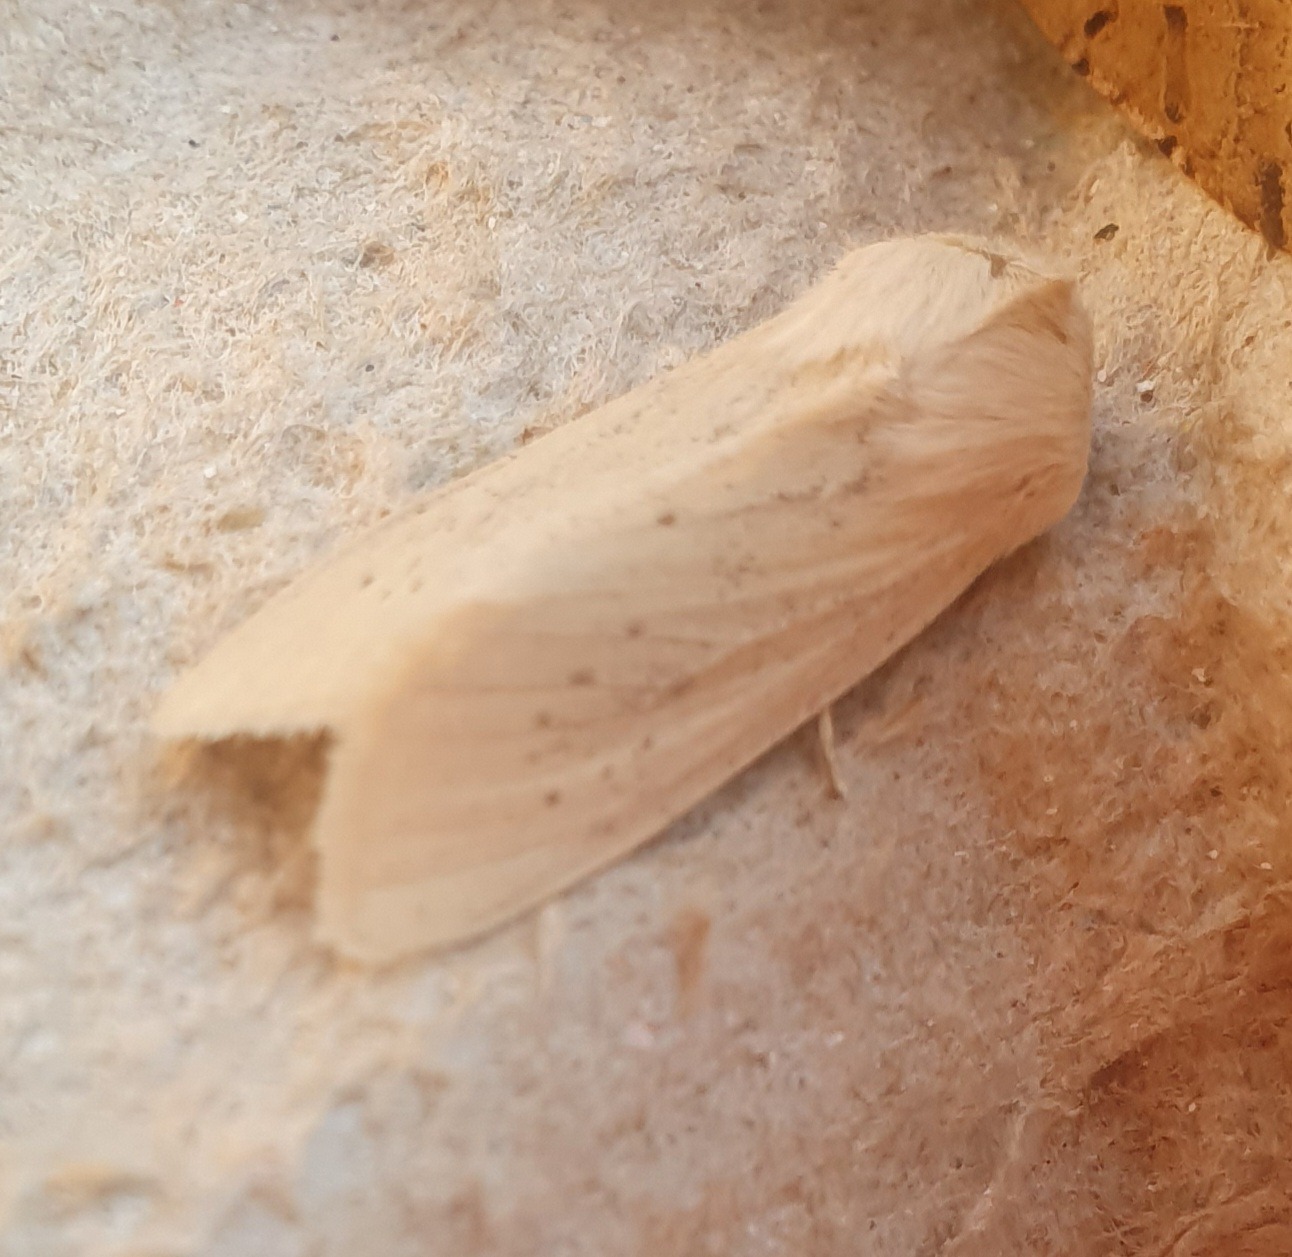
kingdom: Animalia
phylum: Arthropoda
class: Insecta
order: Lepidoptera
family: Noctuidae
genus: Rhizedra
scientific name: Rhizedra lutosa
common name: Stor sivugle
